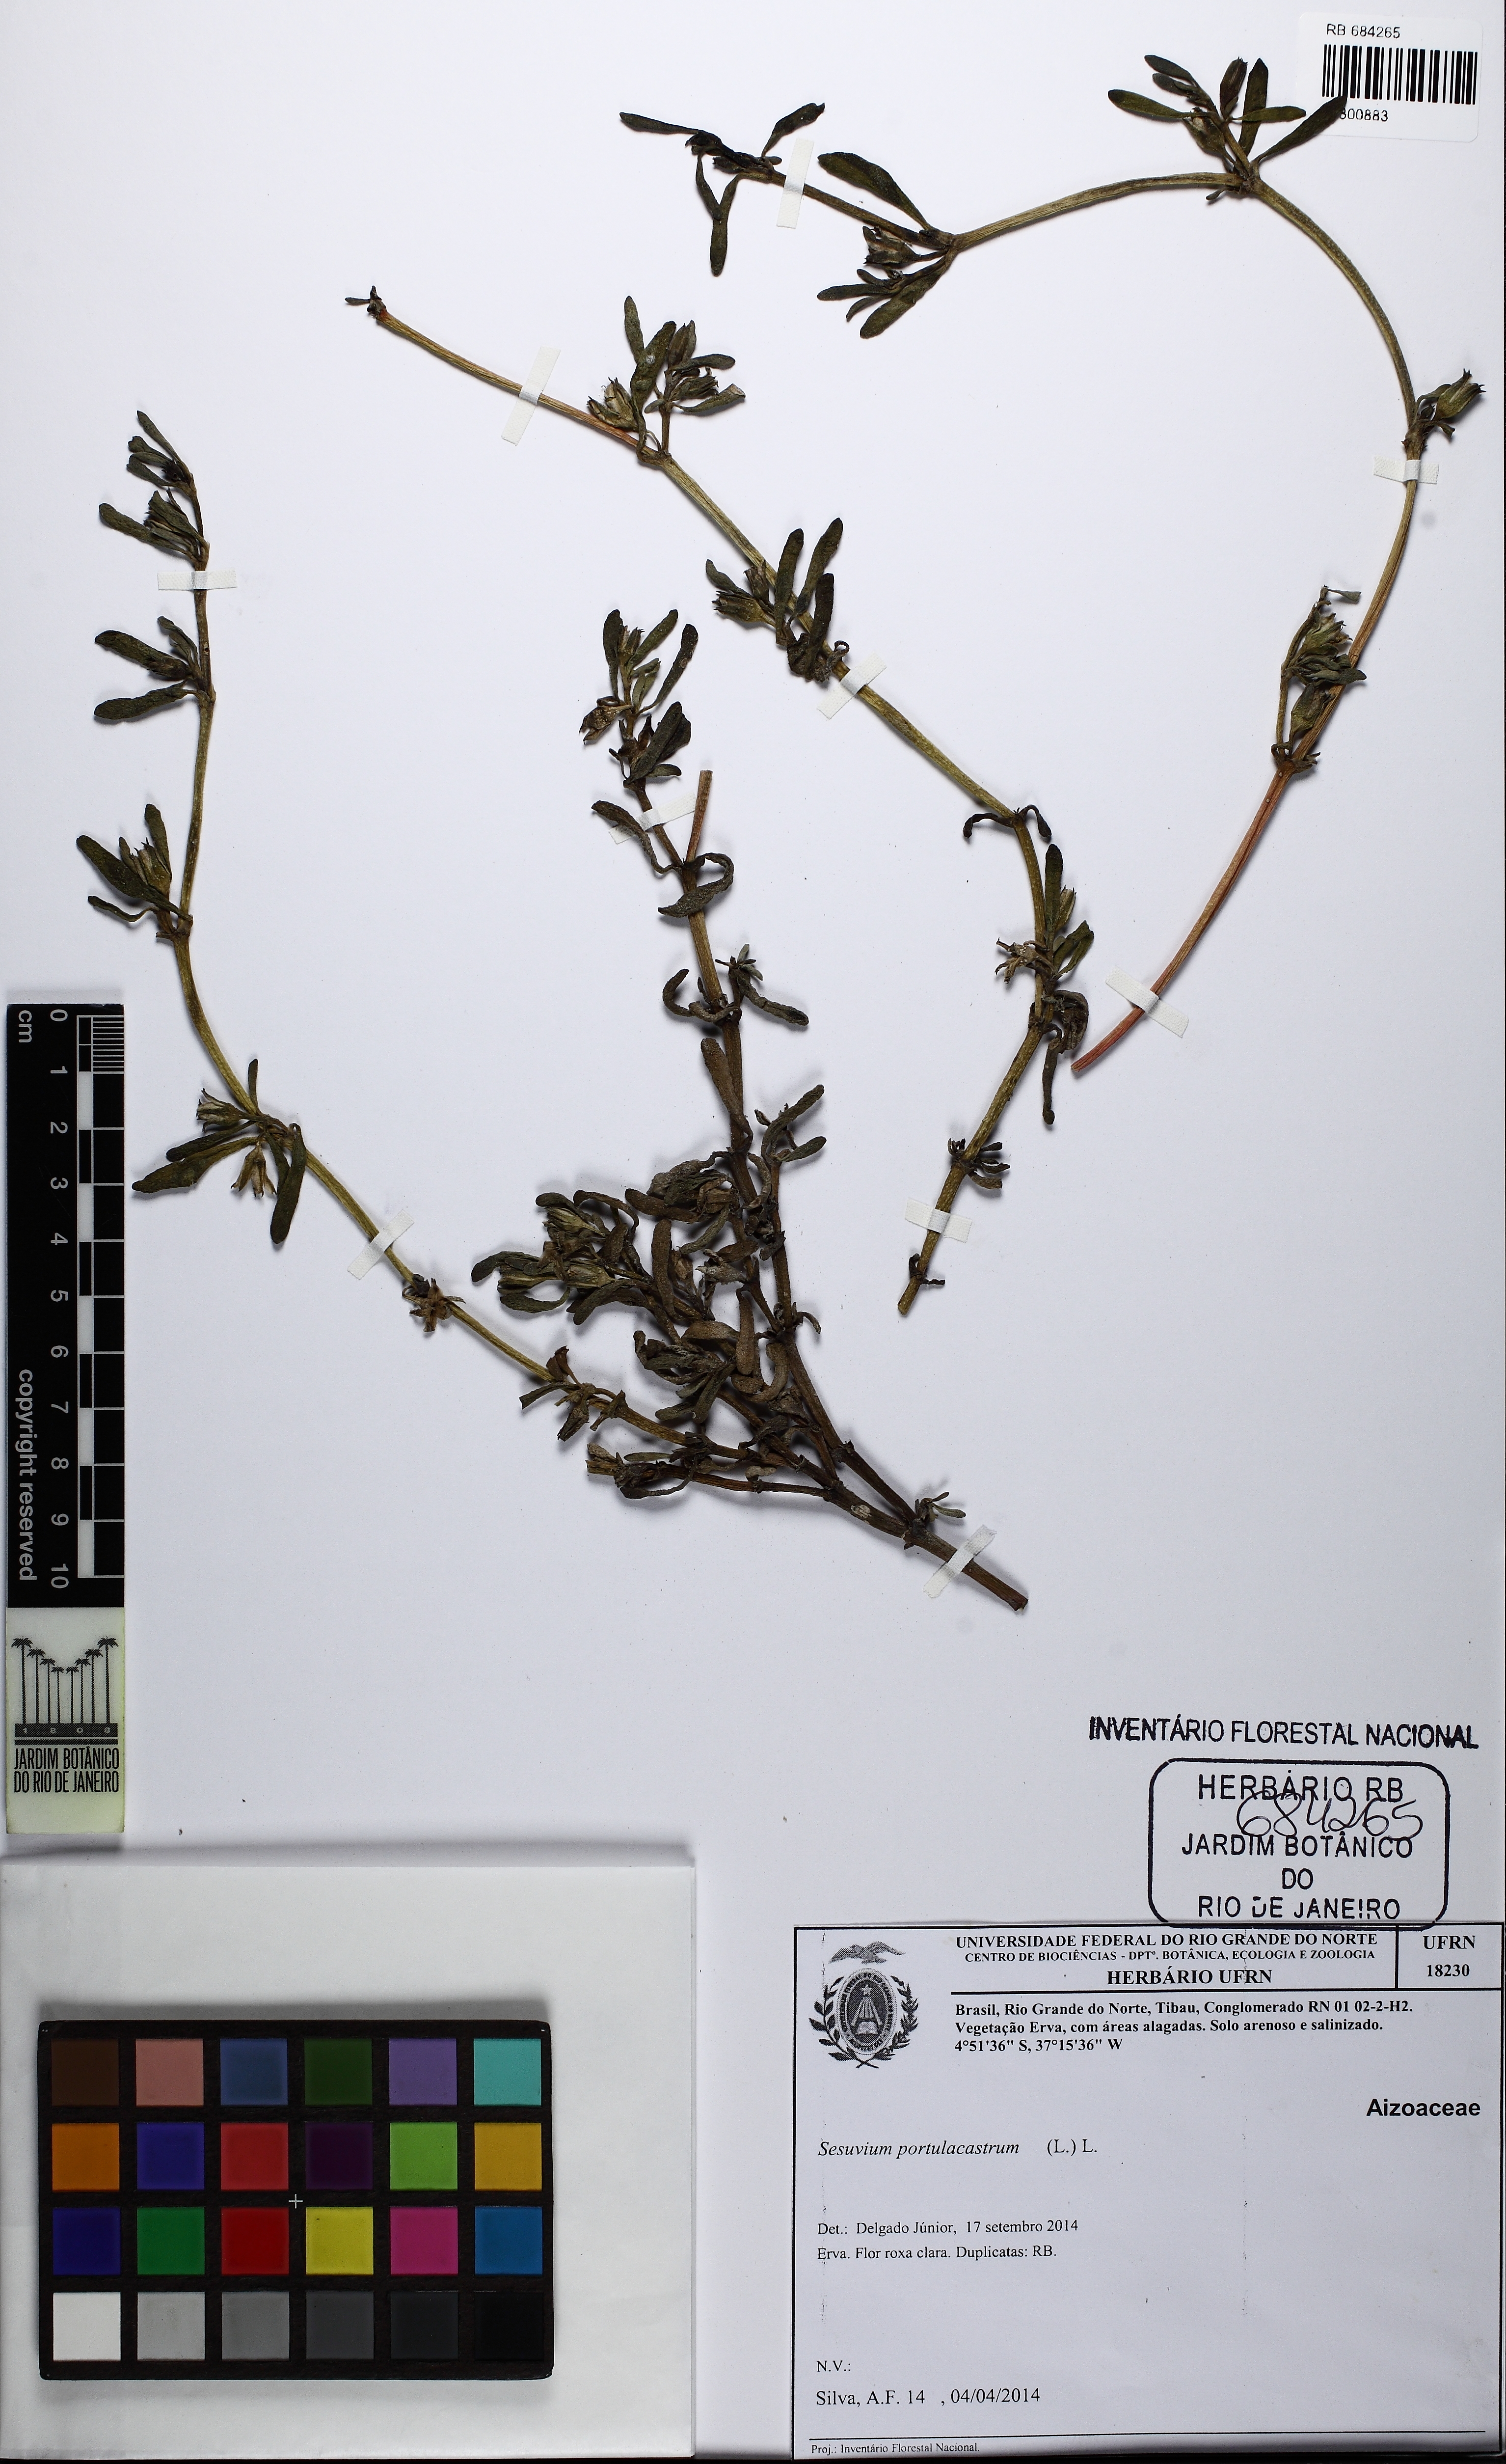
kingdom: Plantae
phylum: Tracheophyta
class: Magnoliopsida
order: Caryophyllales
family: Aizoaceae
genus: Sesuvium
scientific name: Sesuvium portulacastrum
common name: Sea-purslane
